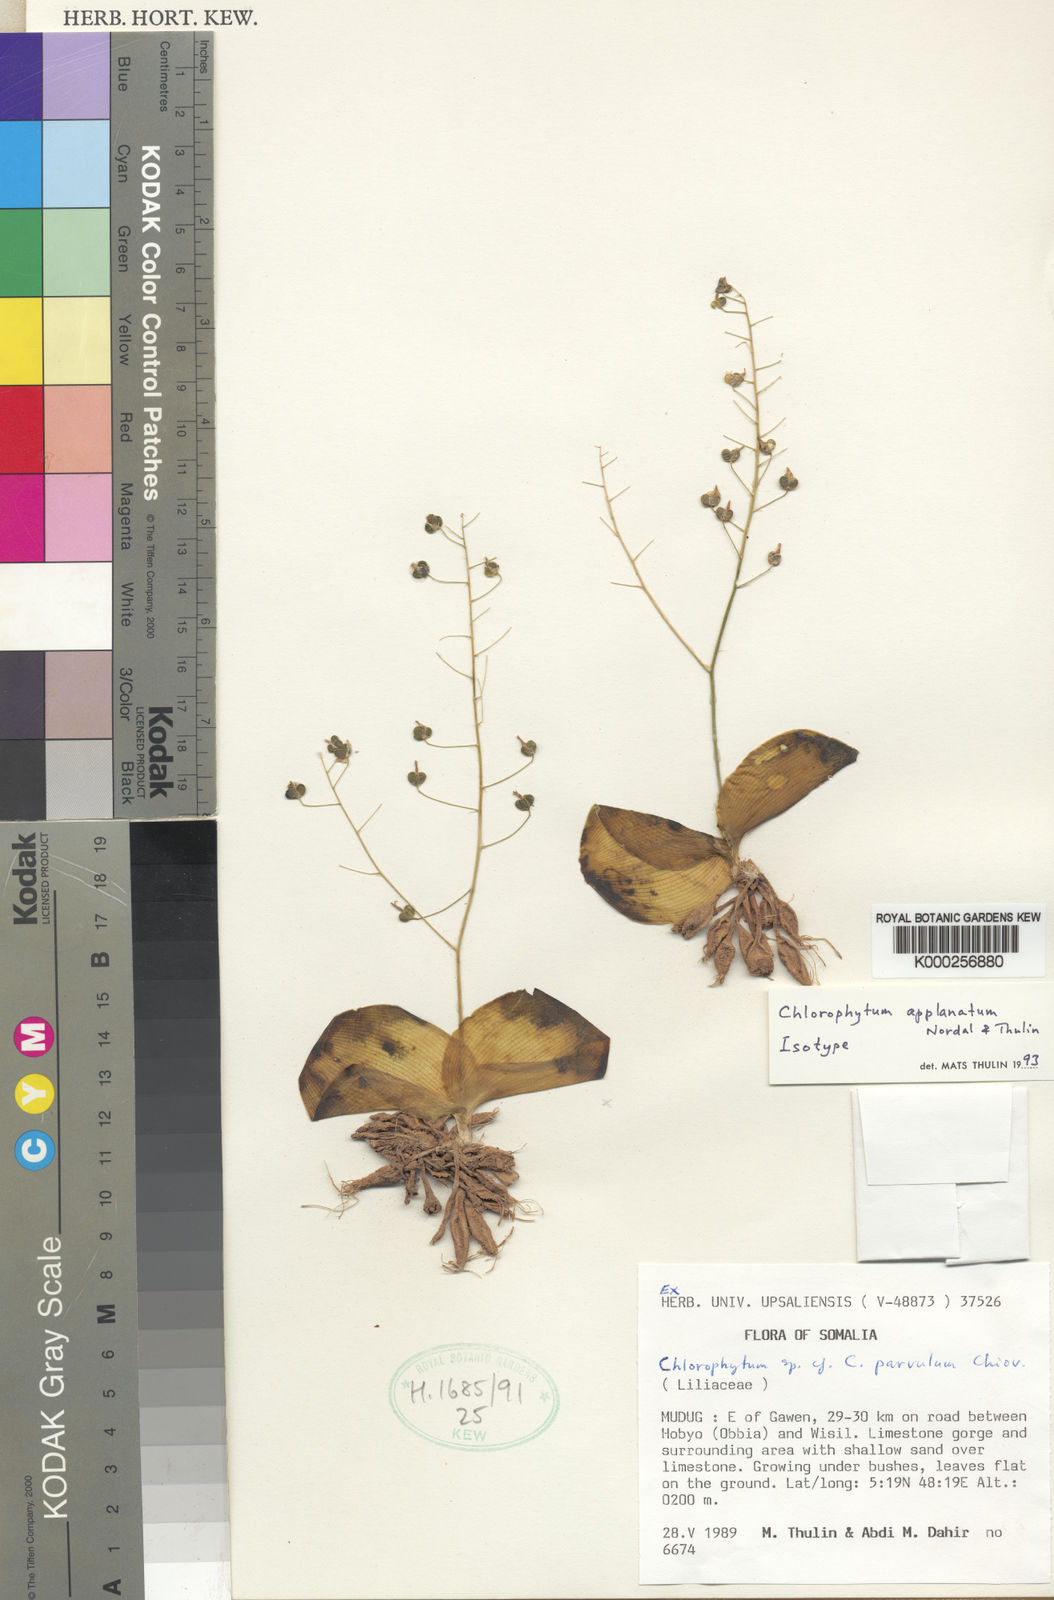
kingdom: Plantae
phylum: Tracheophyta
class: Liliopsida
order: Asparagales
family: Asparagaceae
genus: Chlorophytum
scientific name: Chlorophytum applanatum
